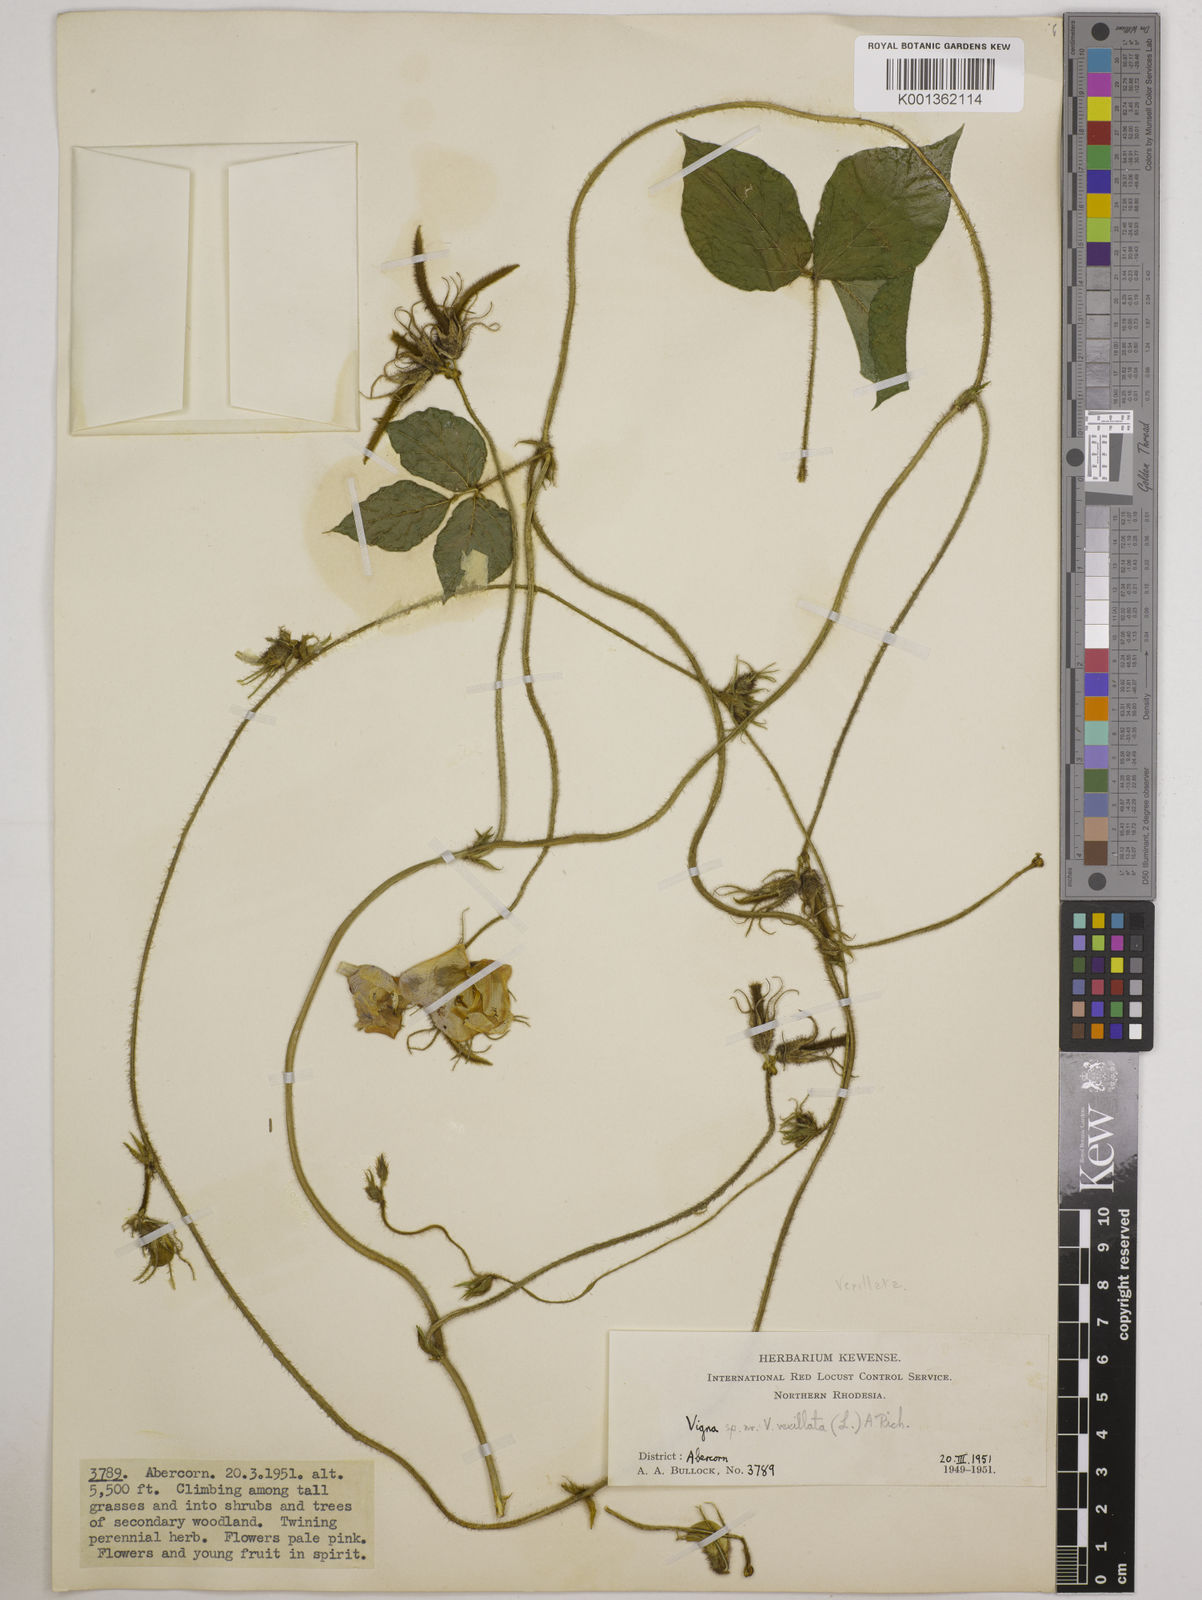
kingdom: Plantae
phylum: Tracheophyta
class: Magnoliopsida
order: Fabales
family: Fabaceae
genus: Vigna
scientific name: Vigna vexillata
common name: Zombi pea
